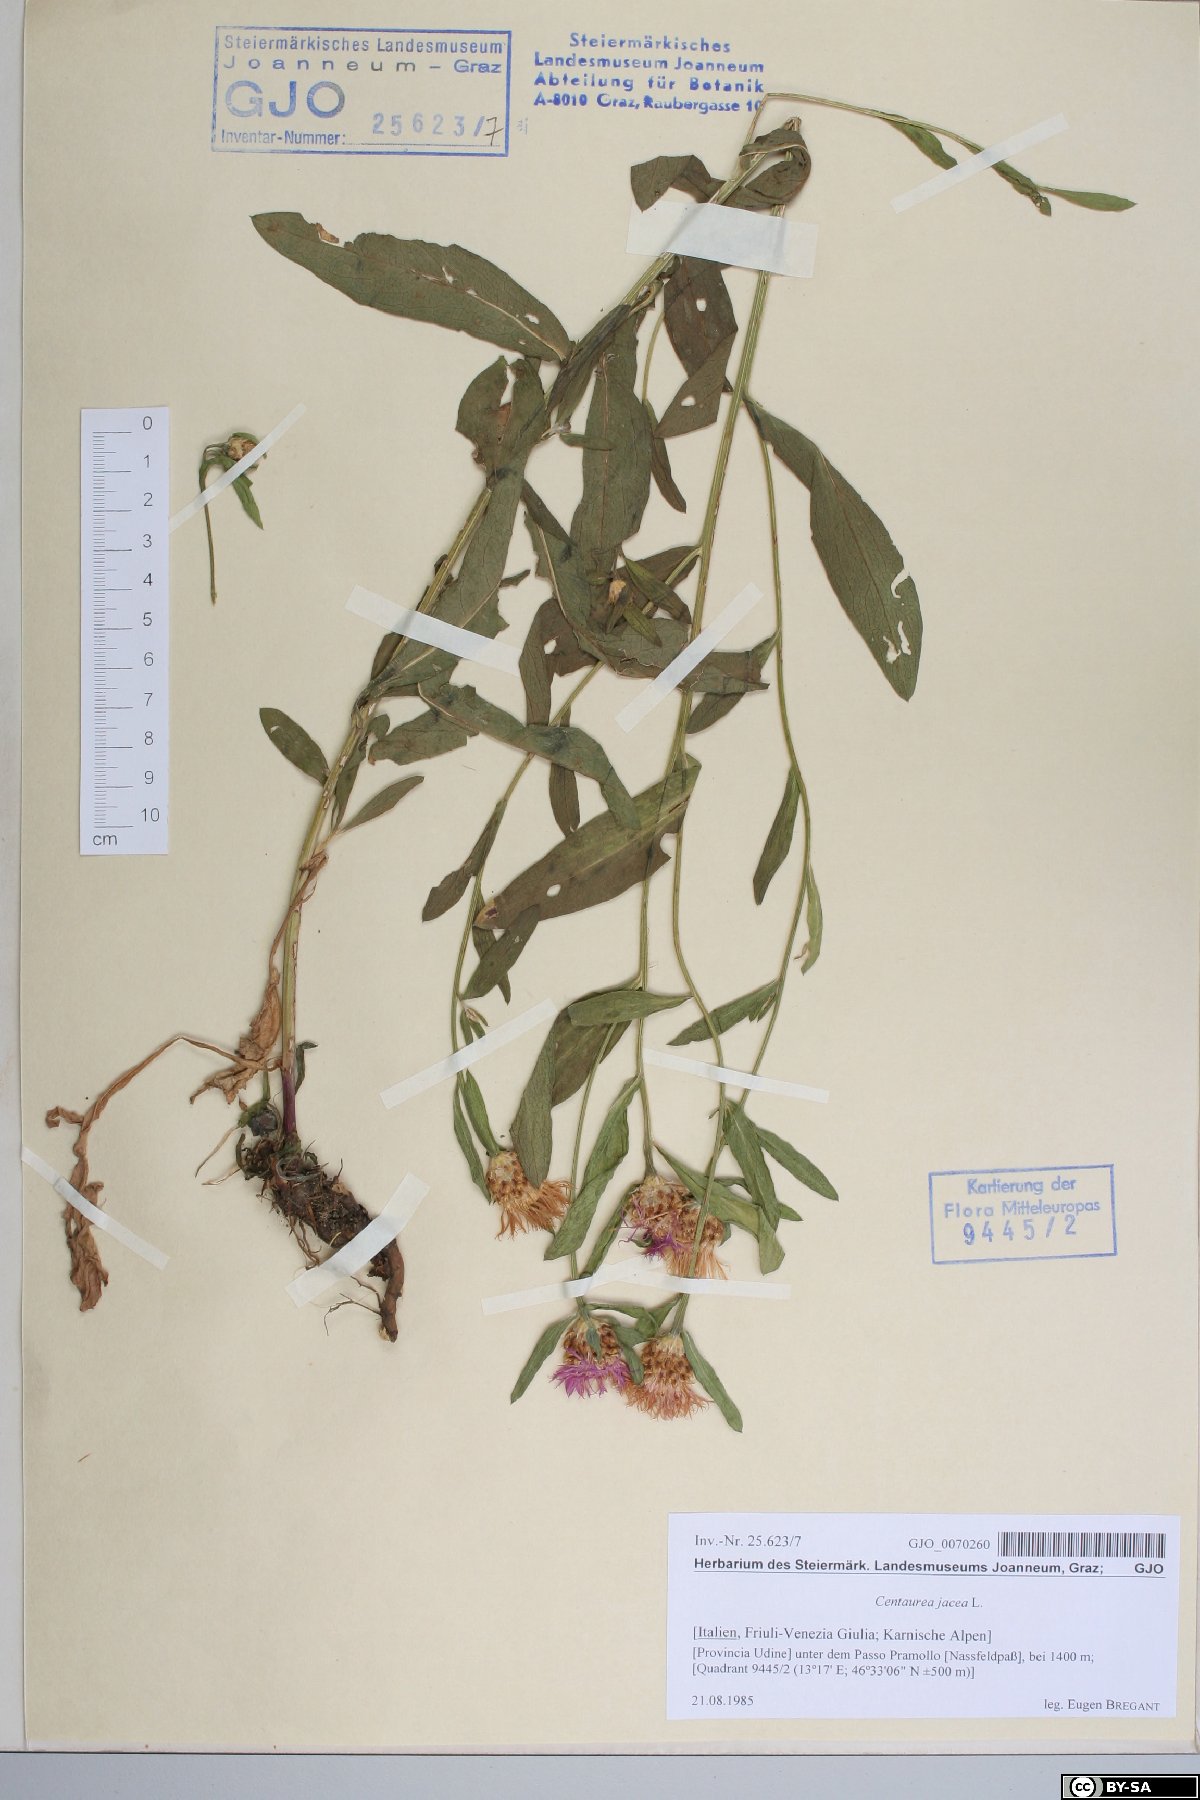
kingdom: Plantae
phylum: Tracheophyta
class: Magnoliopsida
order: Asterales
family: Asteraceae
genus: Centaurea
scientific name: Centaurea jacea
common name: Brown knapweed
